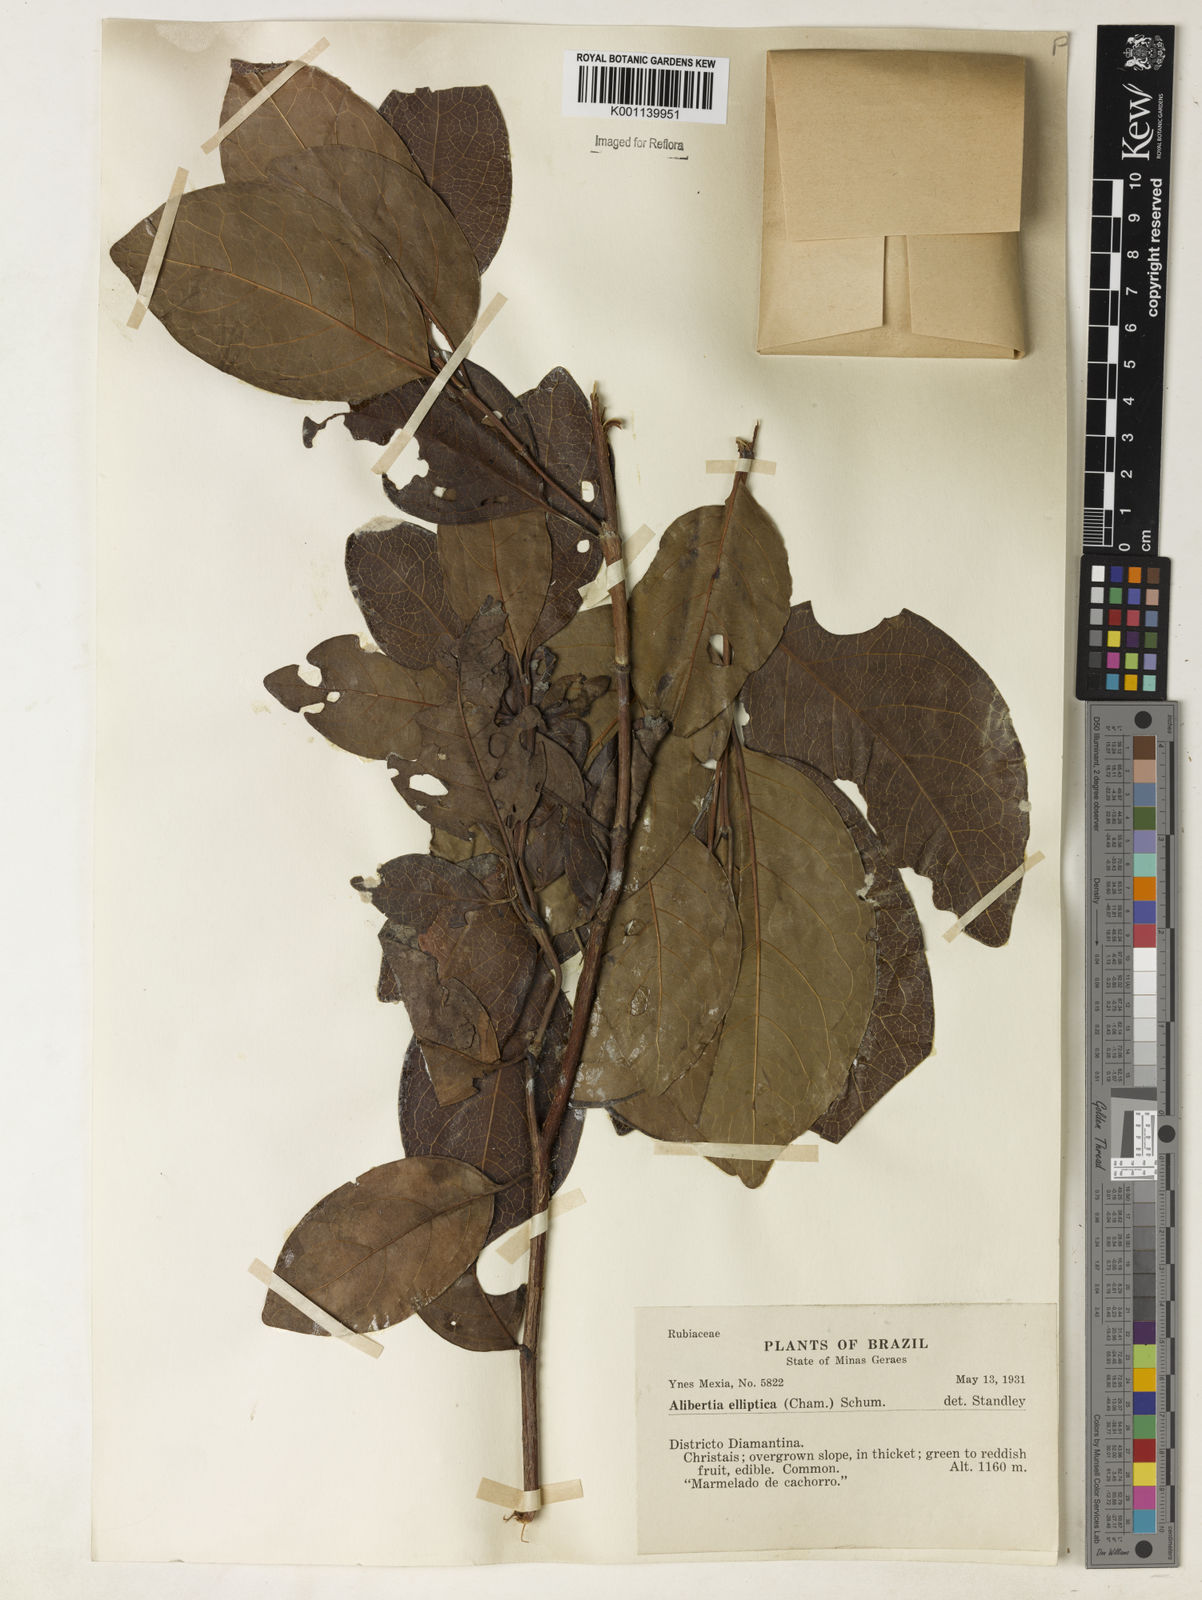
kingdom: Plantae
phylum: Tracheophyta
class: Magnoliopsida
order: Gentianales
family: Rubiaceae
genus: Alibertia
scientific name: Alibertia
